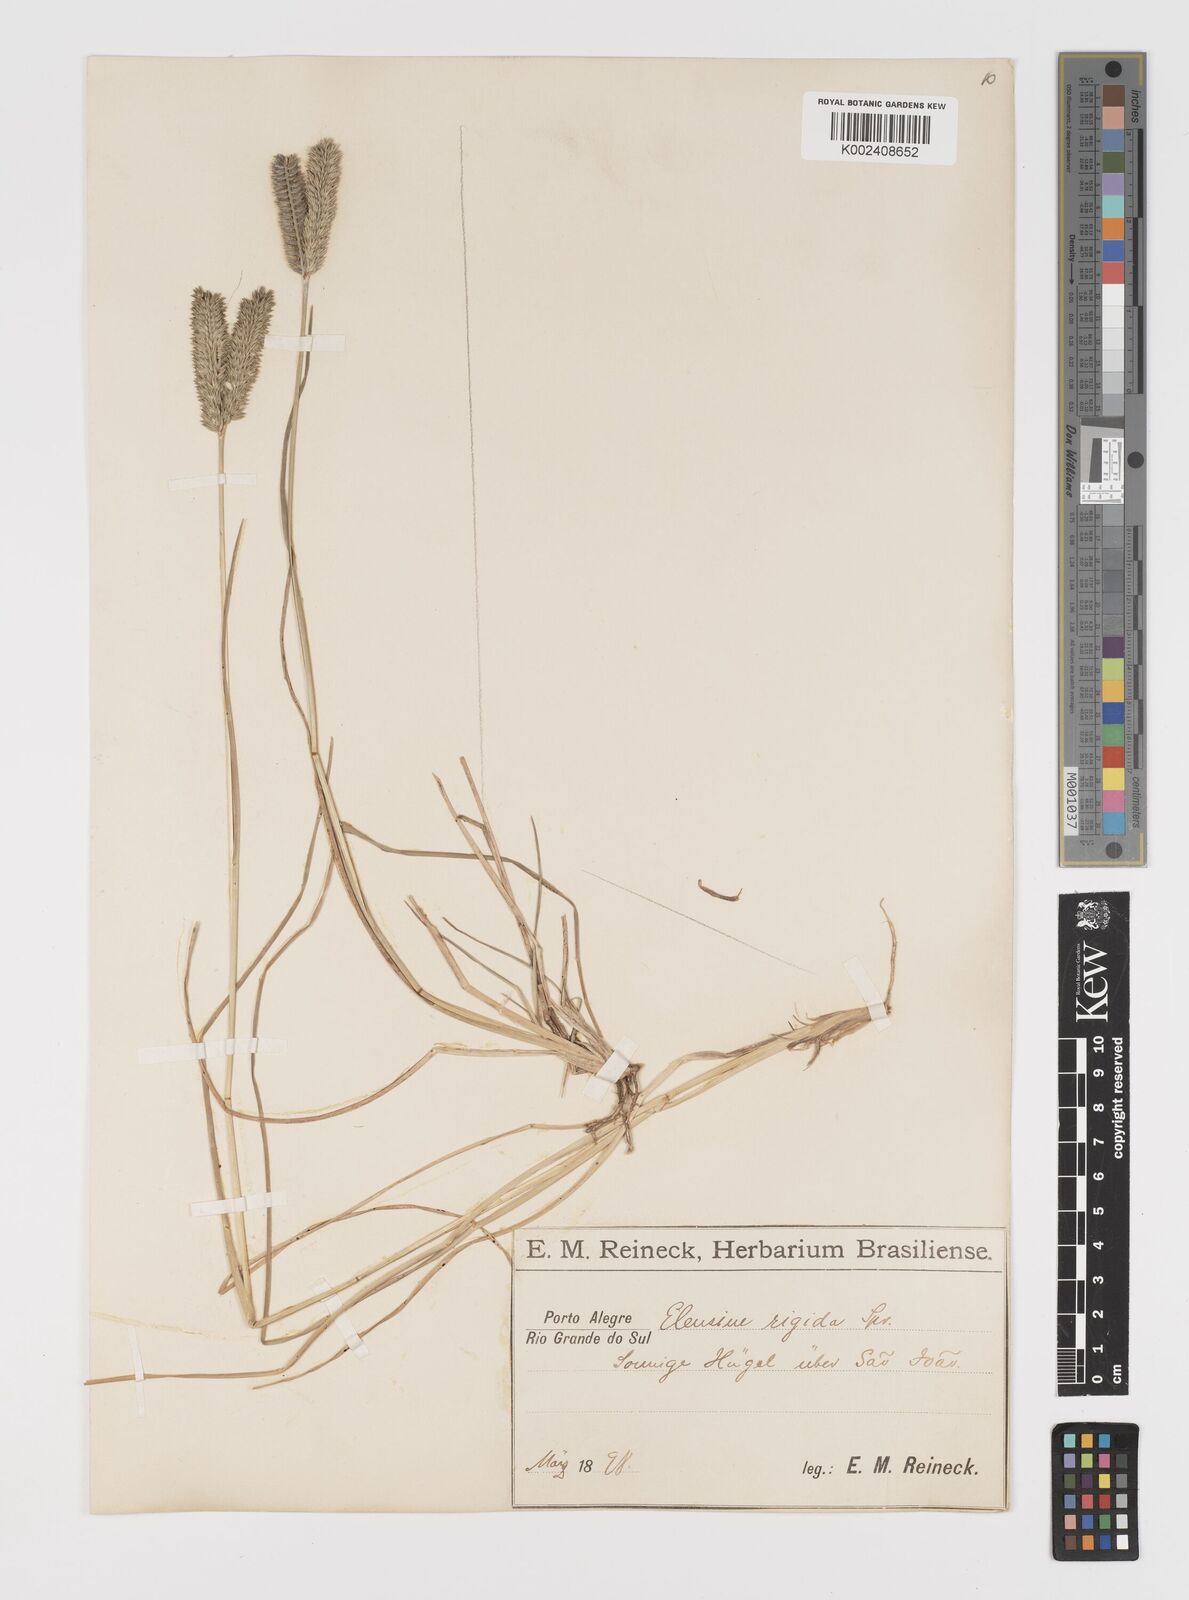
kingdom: Plantae
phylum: Tracheophyta
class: Liliopsida
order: Poales
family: Poaceae
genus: Eleusine
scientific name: Eleusine tristachya
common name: American yard-grass
